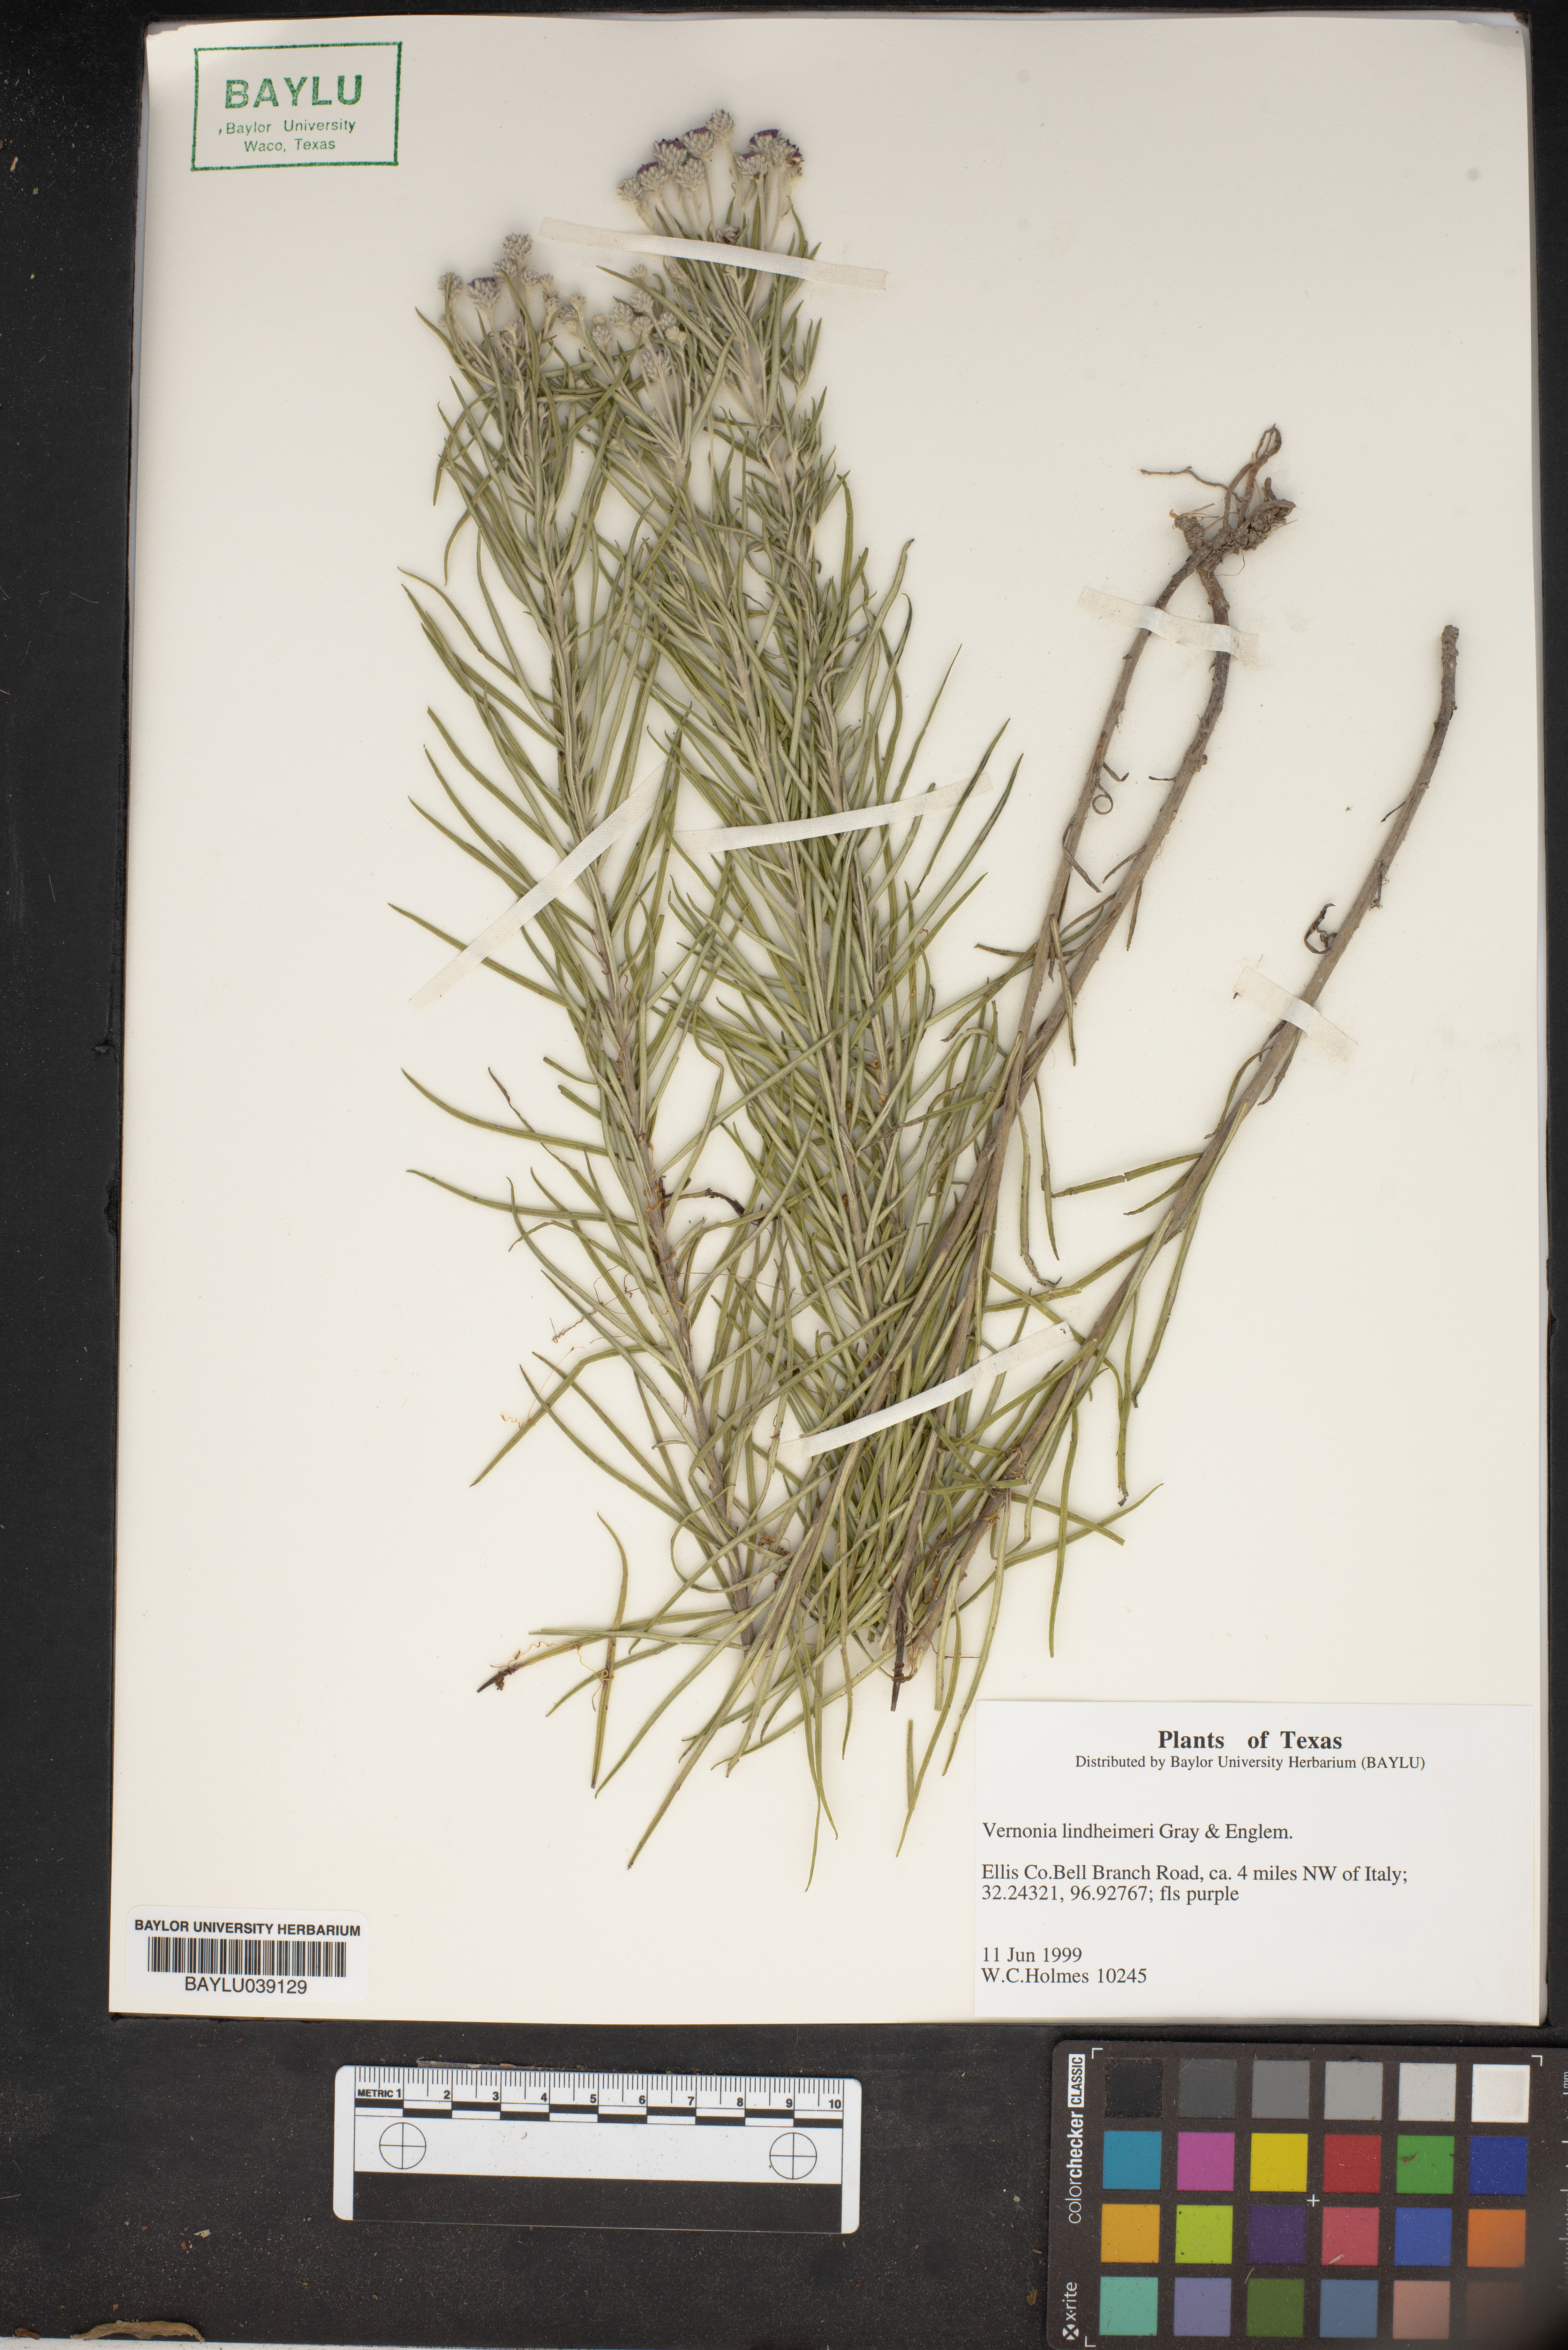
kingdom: Plantae
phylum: Tracheophyta
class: Magnoliopsida
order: Asterales
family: Asteraceae
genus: Vernonia
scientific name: Vernonia lindheimeri
